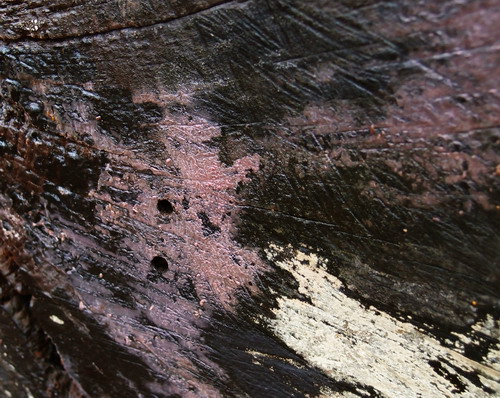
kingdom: Fungi
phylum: Basidiomycota
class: Agaricomycetes
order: Cantharellales
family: Tulasnellaceae
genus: Tulasnella
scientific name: Tulasnella violea
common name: violet ballonhinde
